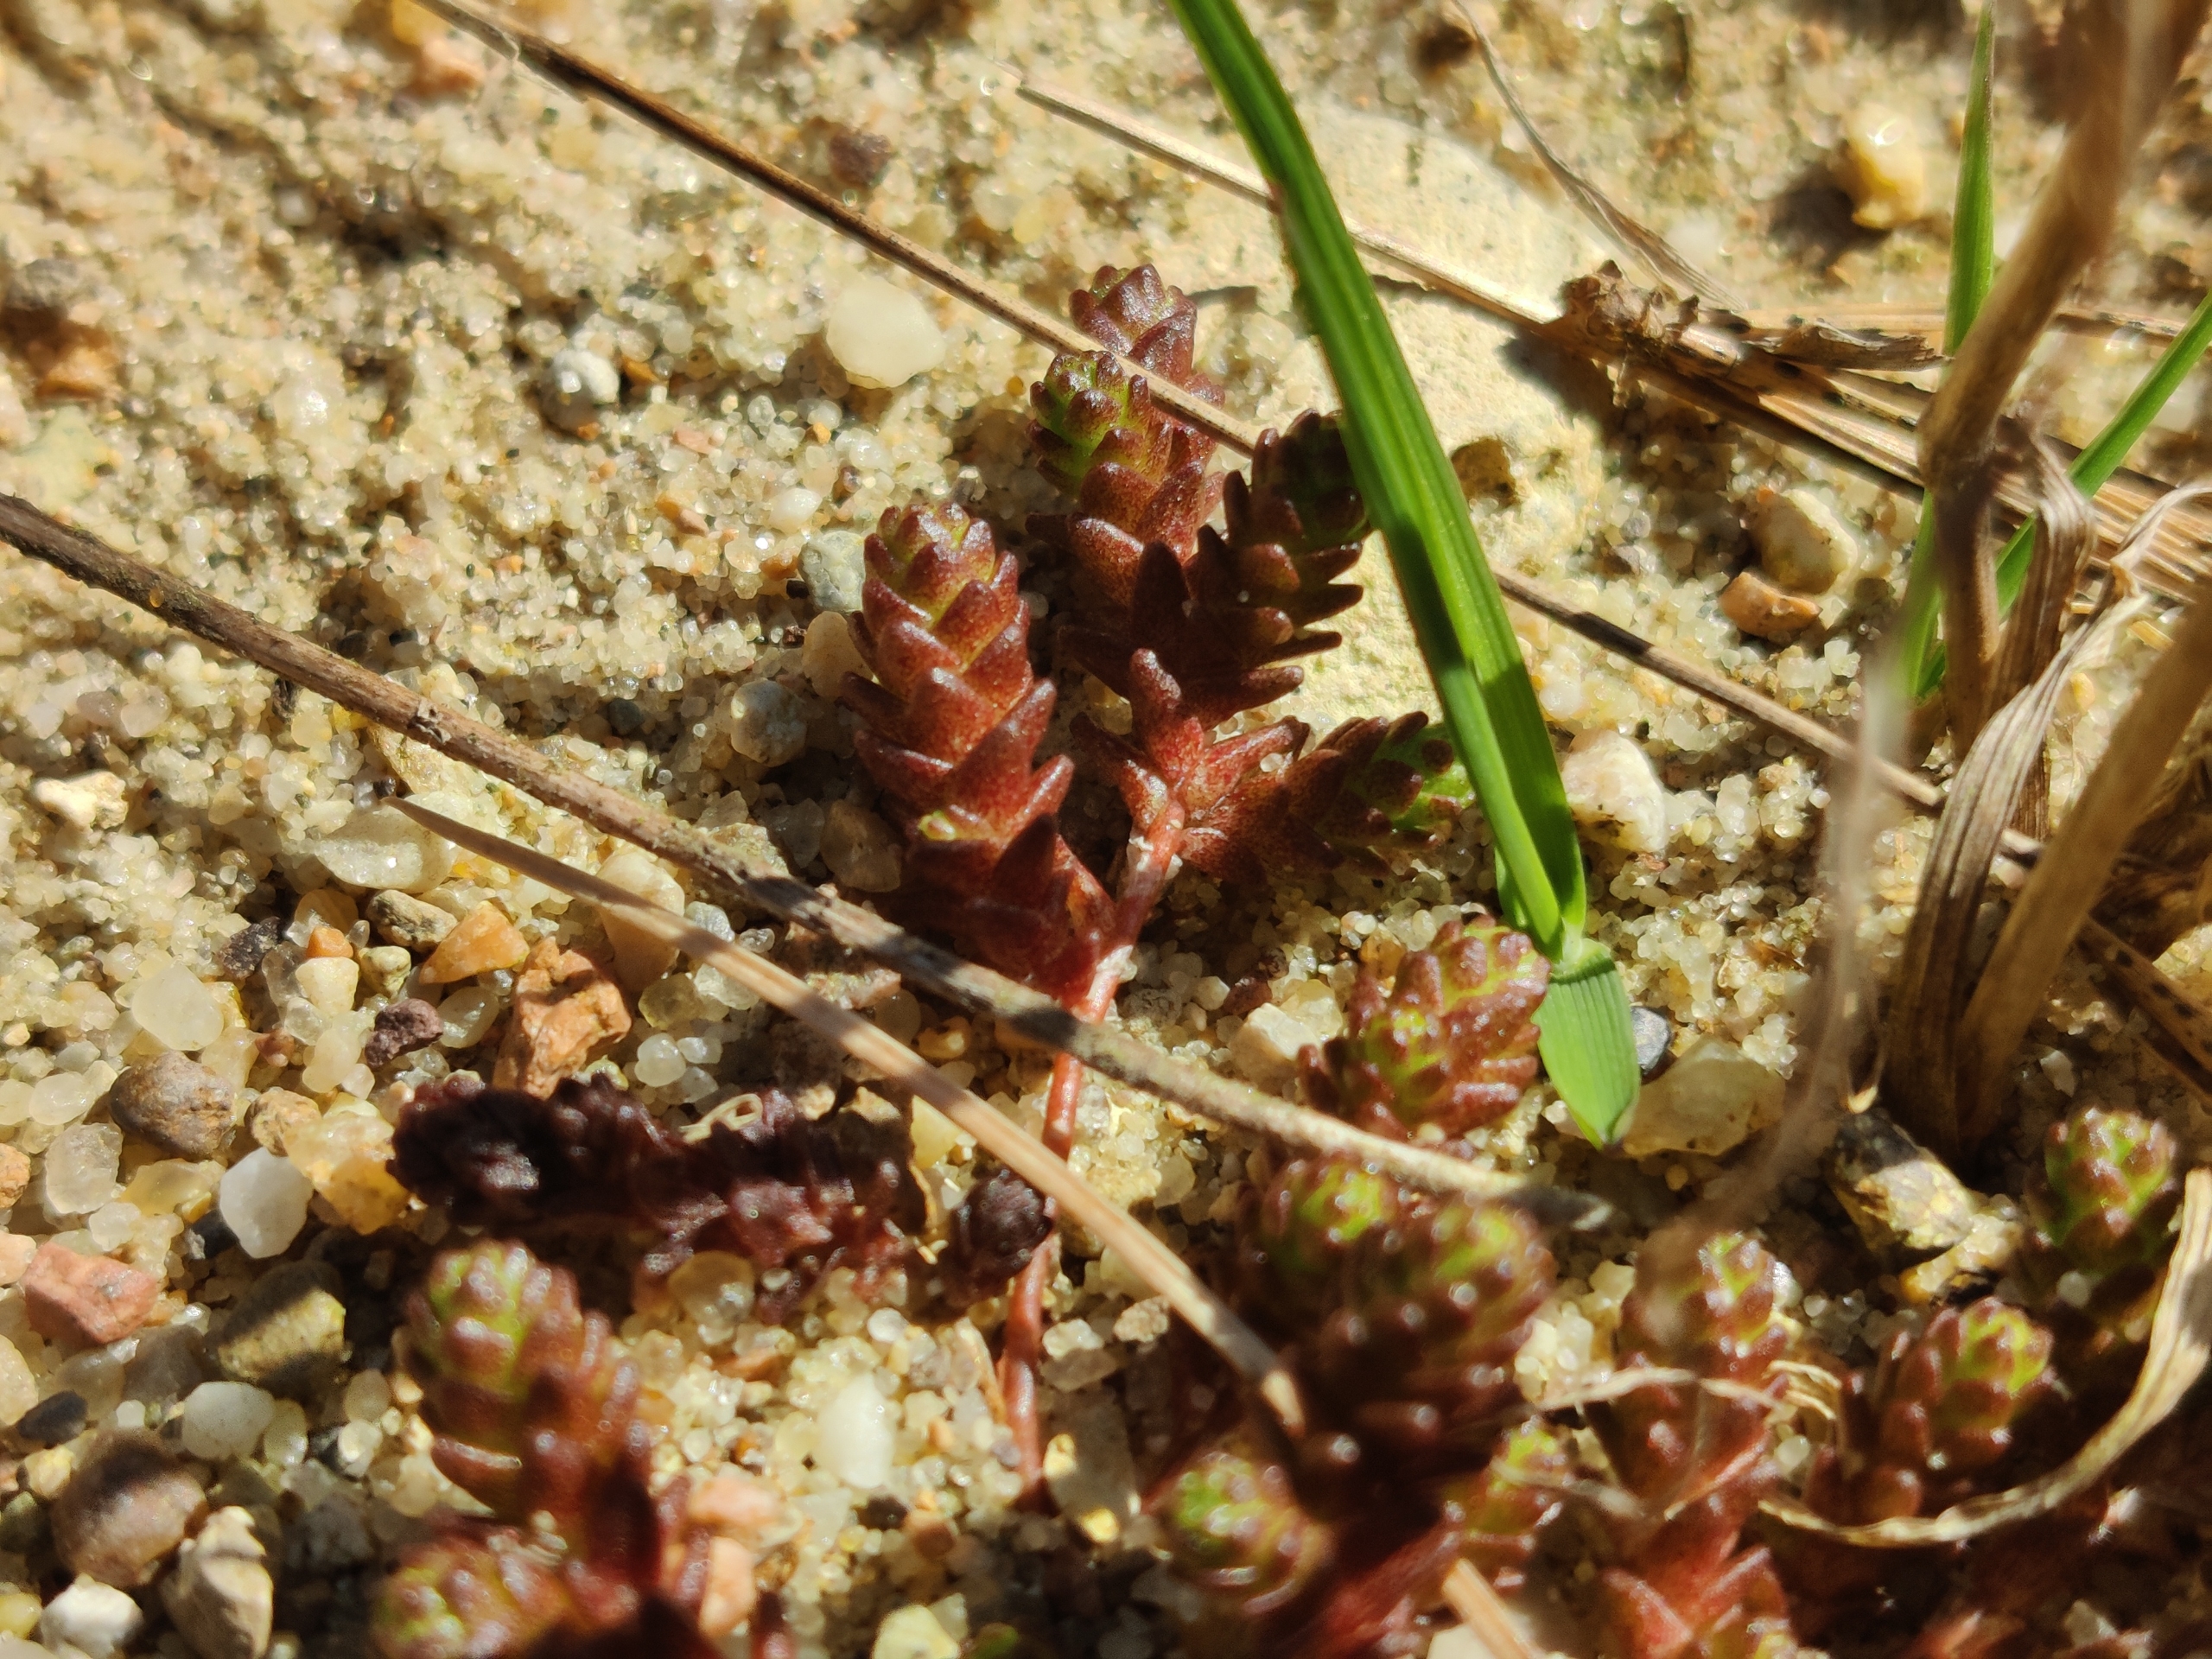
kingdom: Plantae
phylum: Tracheophyta
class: Magnoliopsida
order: Saxifragales
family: Crassulaceae
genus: Sedum
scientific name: Sedum acre
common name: Bidende stenurt
